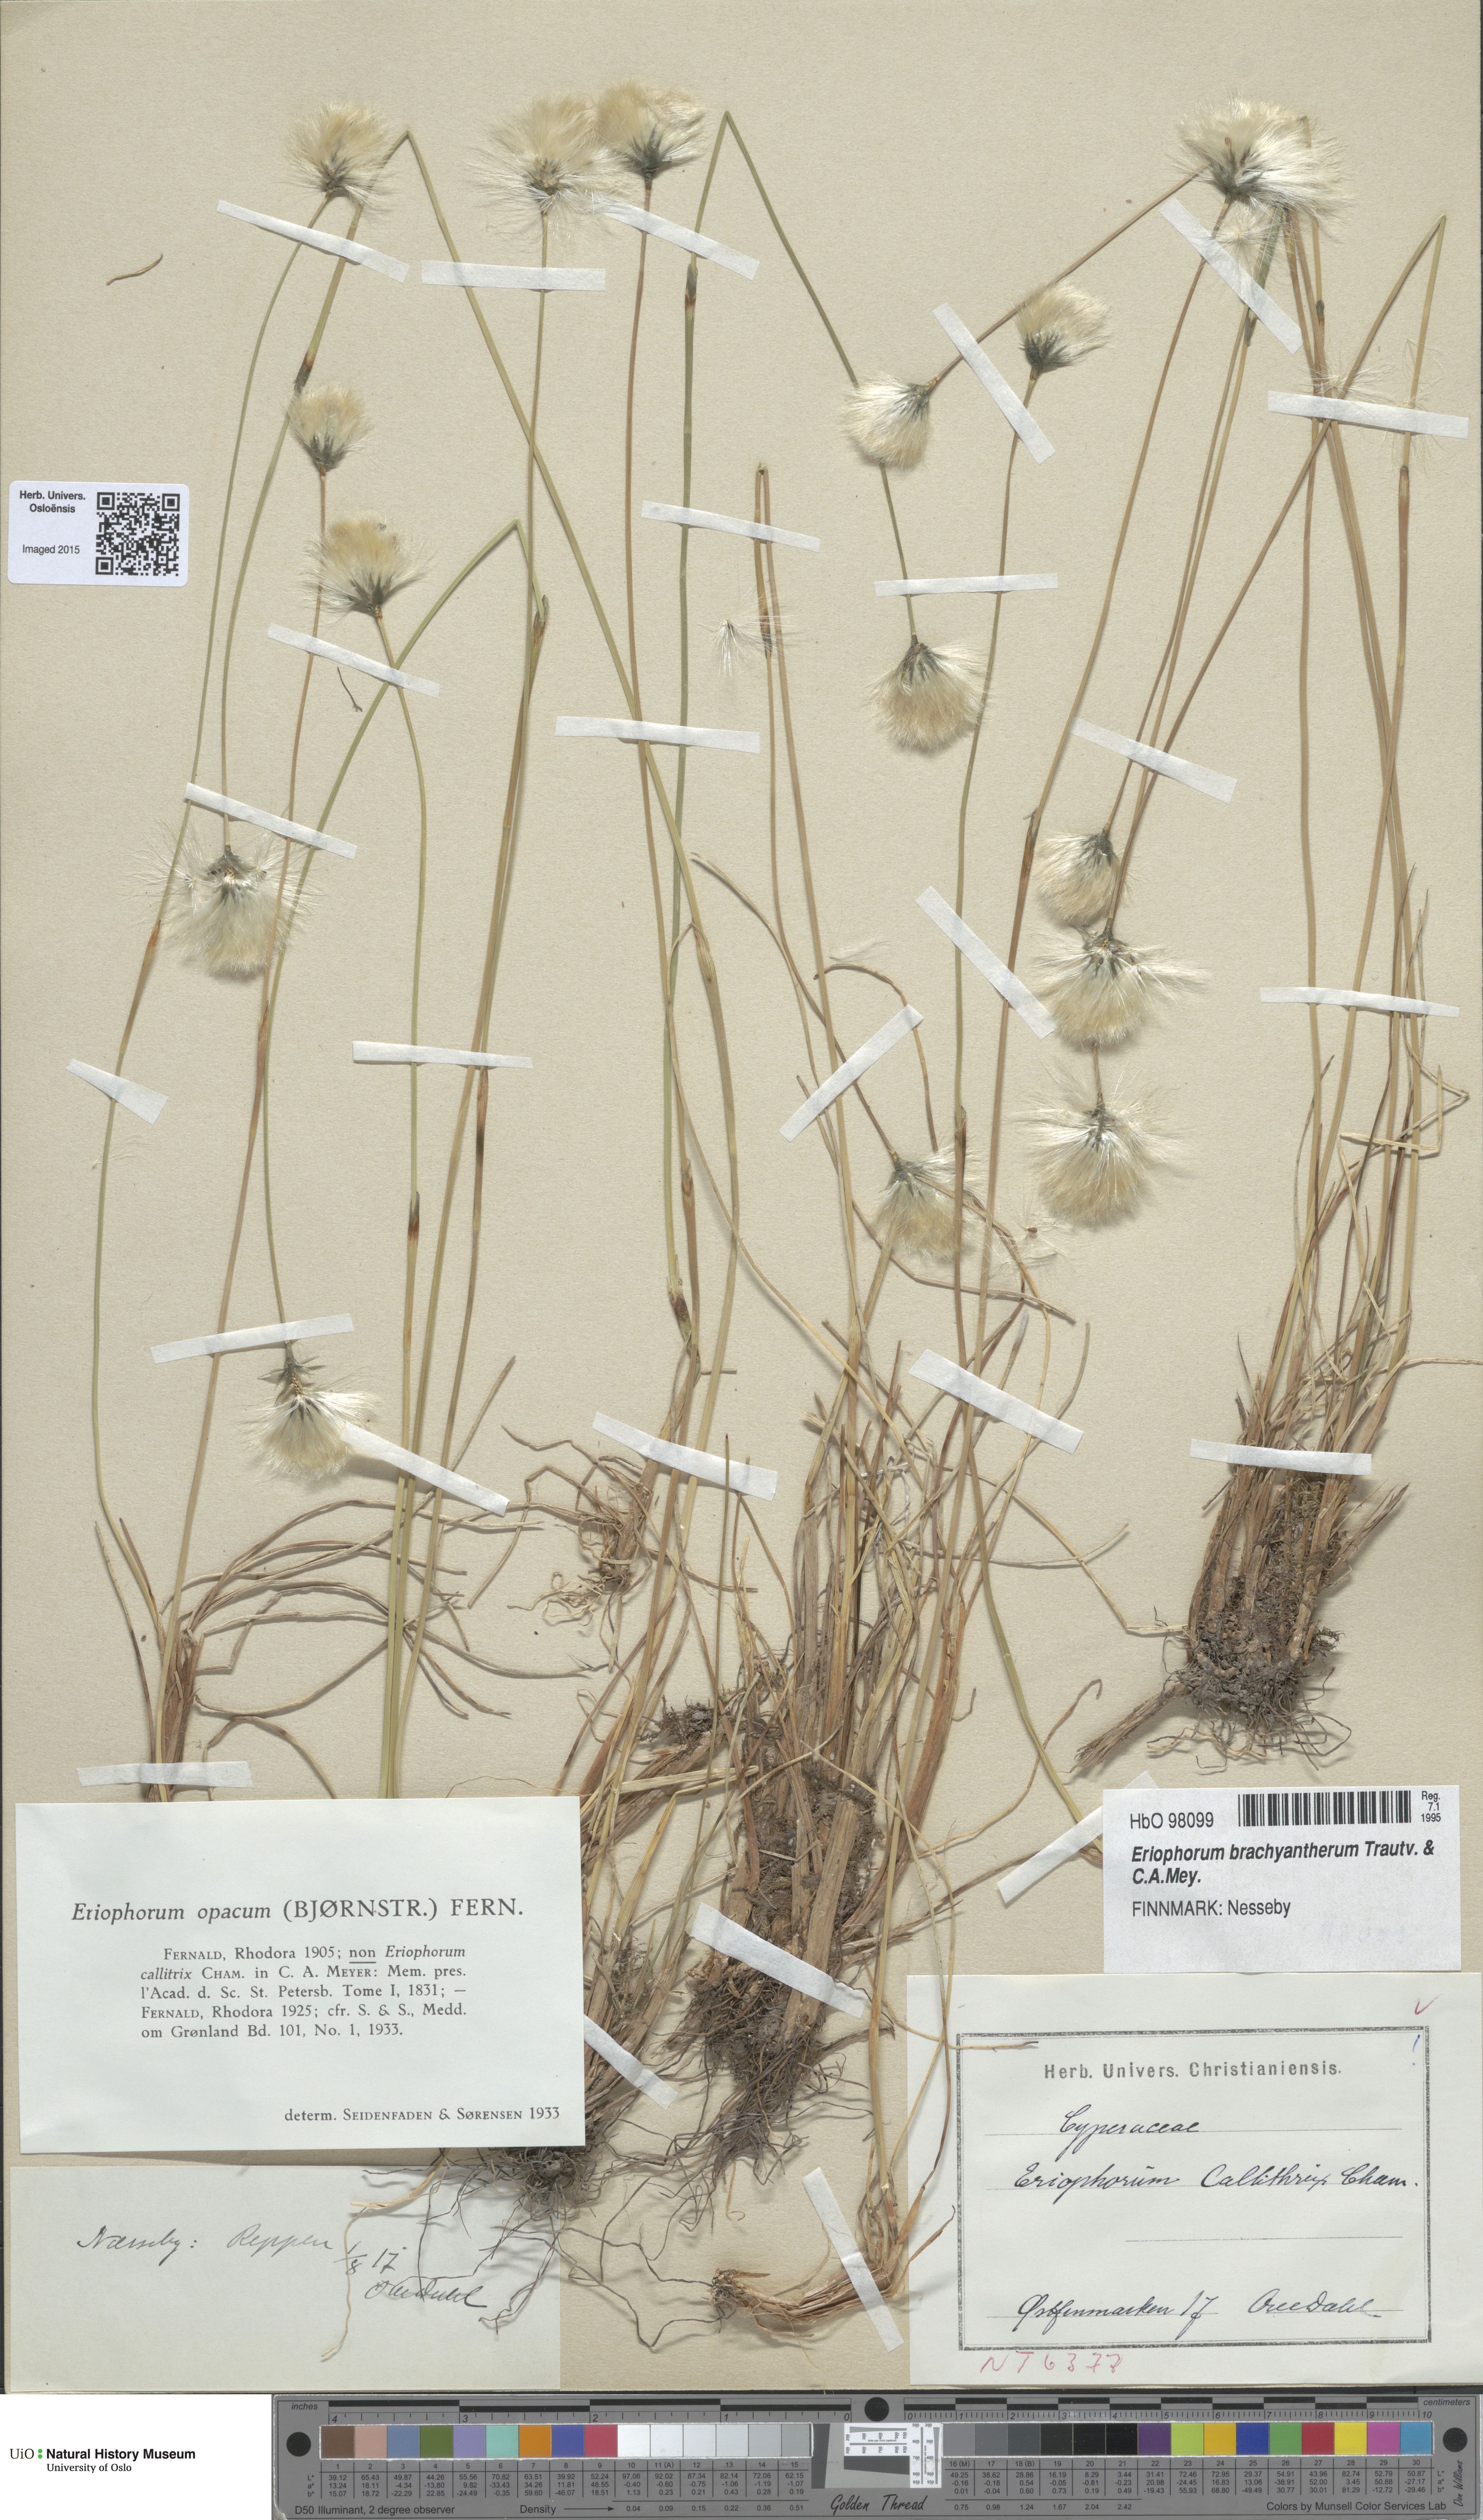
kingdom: Plantae
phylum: Tracheophyta
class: Liliopsida
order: Poales
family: Cyperaceae
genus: Eriophorum
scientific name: Eriophorum brachyantherum
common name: Closed-sheathed cottongrass
